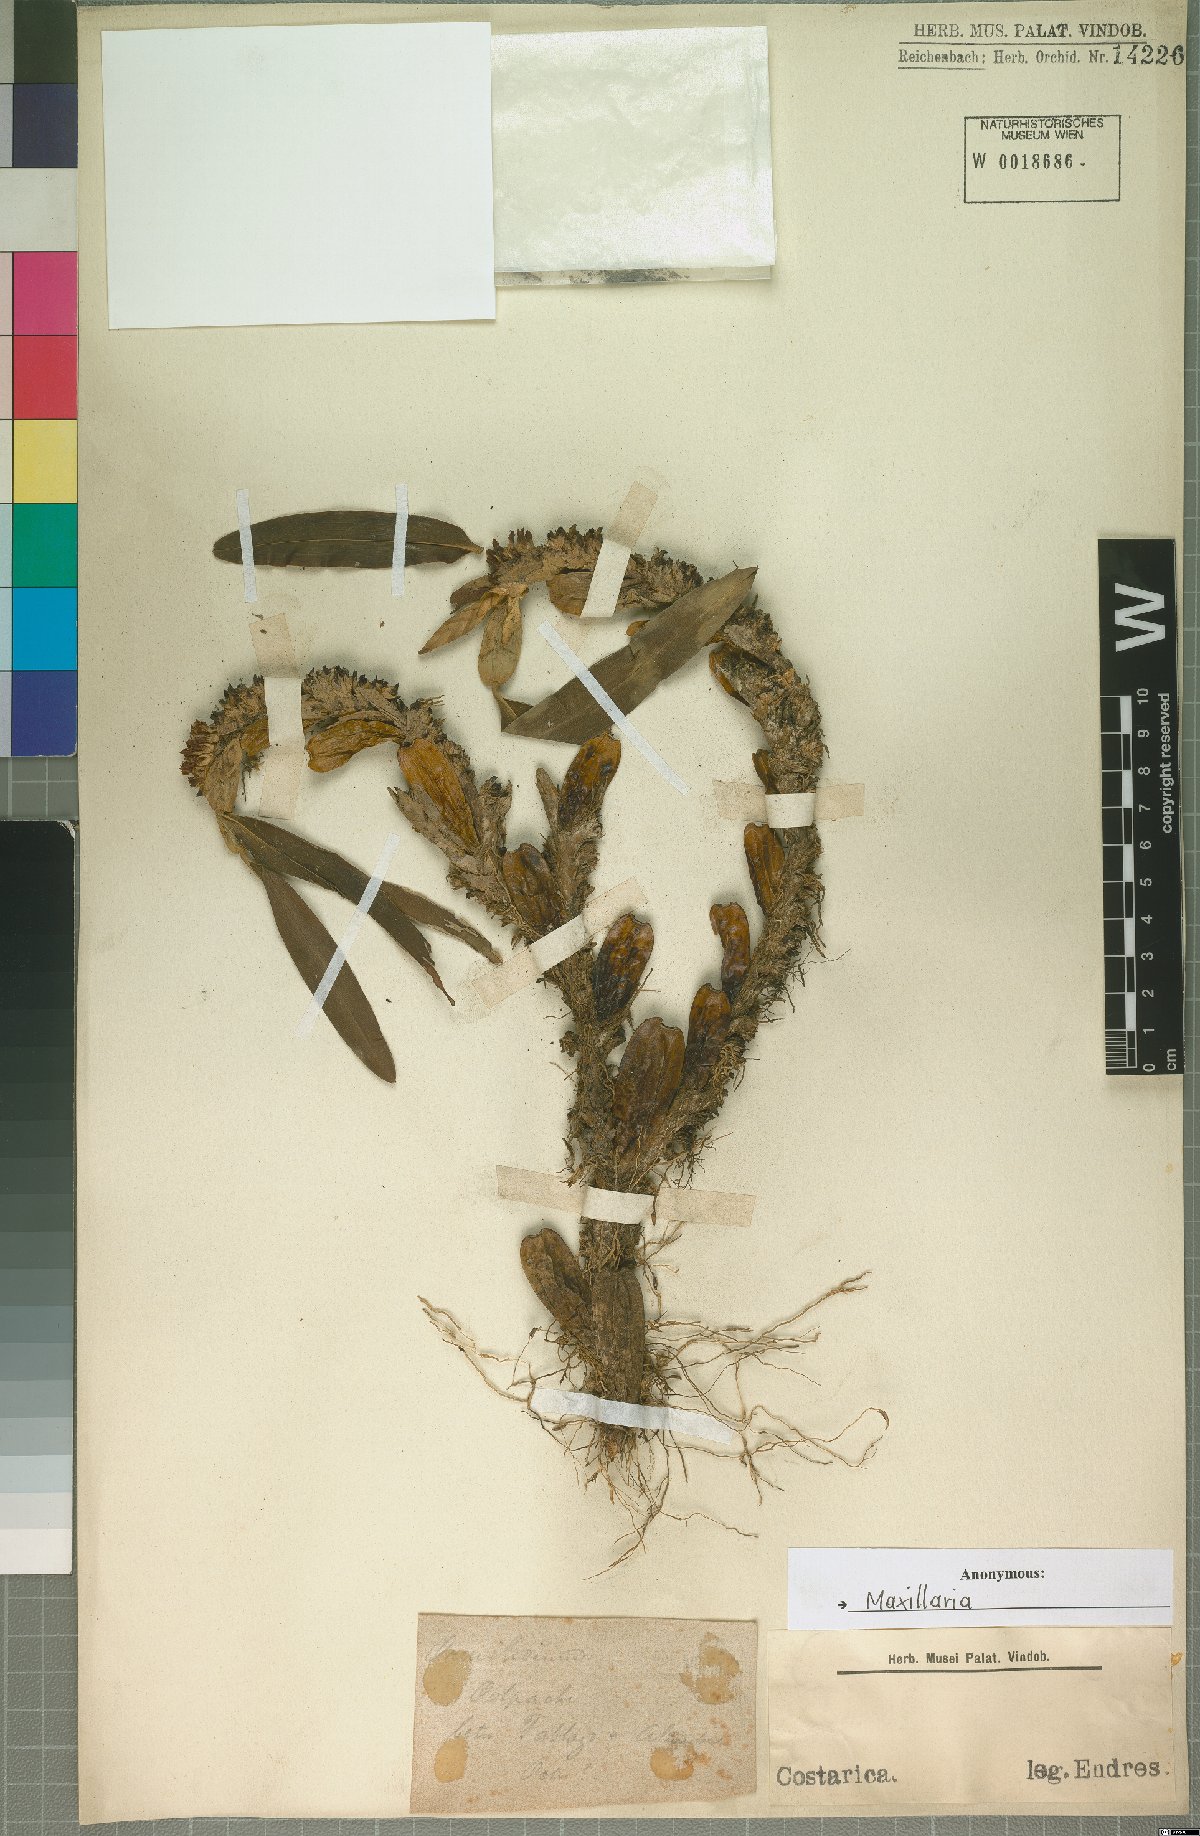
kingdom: Plantae
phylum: Tracheophyta
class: Liliopsida
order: Asparagales
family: Orchidaceae
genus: Maxillaria
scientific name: Maxillaria
